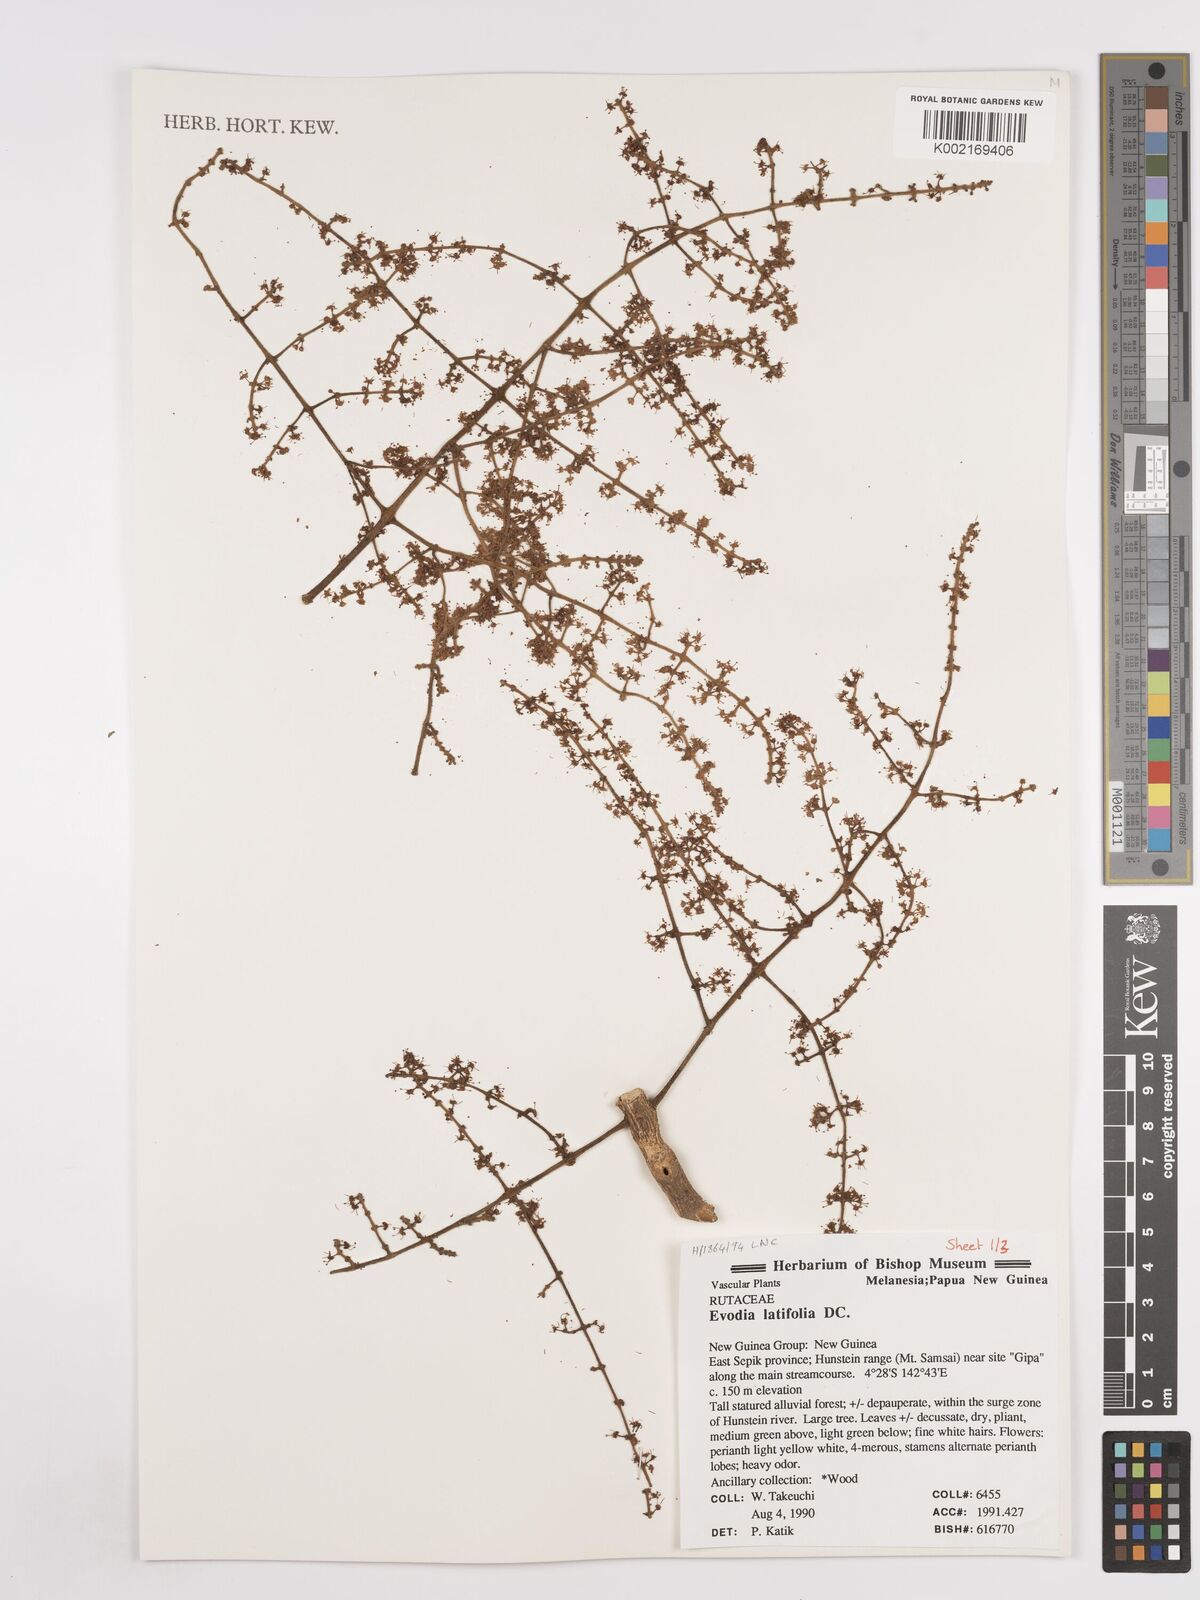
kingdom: Plantae
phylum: Tracheophyta
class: Magnoliopsida
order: Sapindales
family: Rutaceae
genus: Melicope
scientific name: Melicope latifolia
